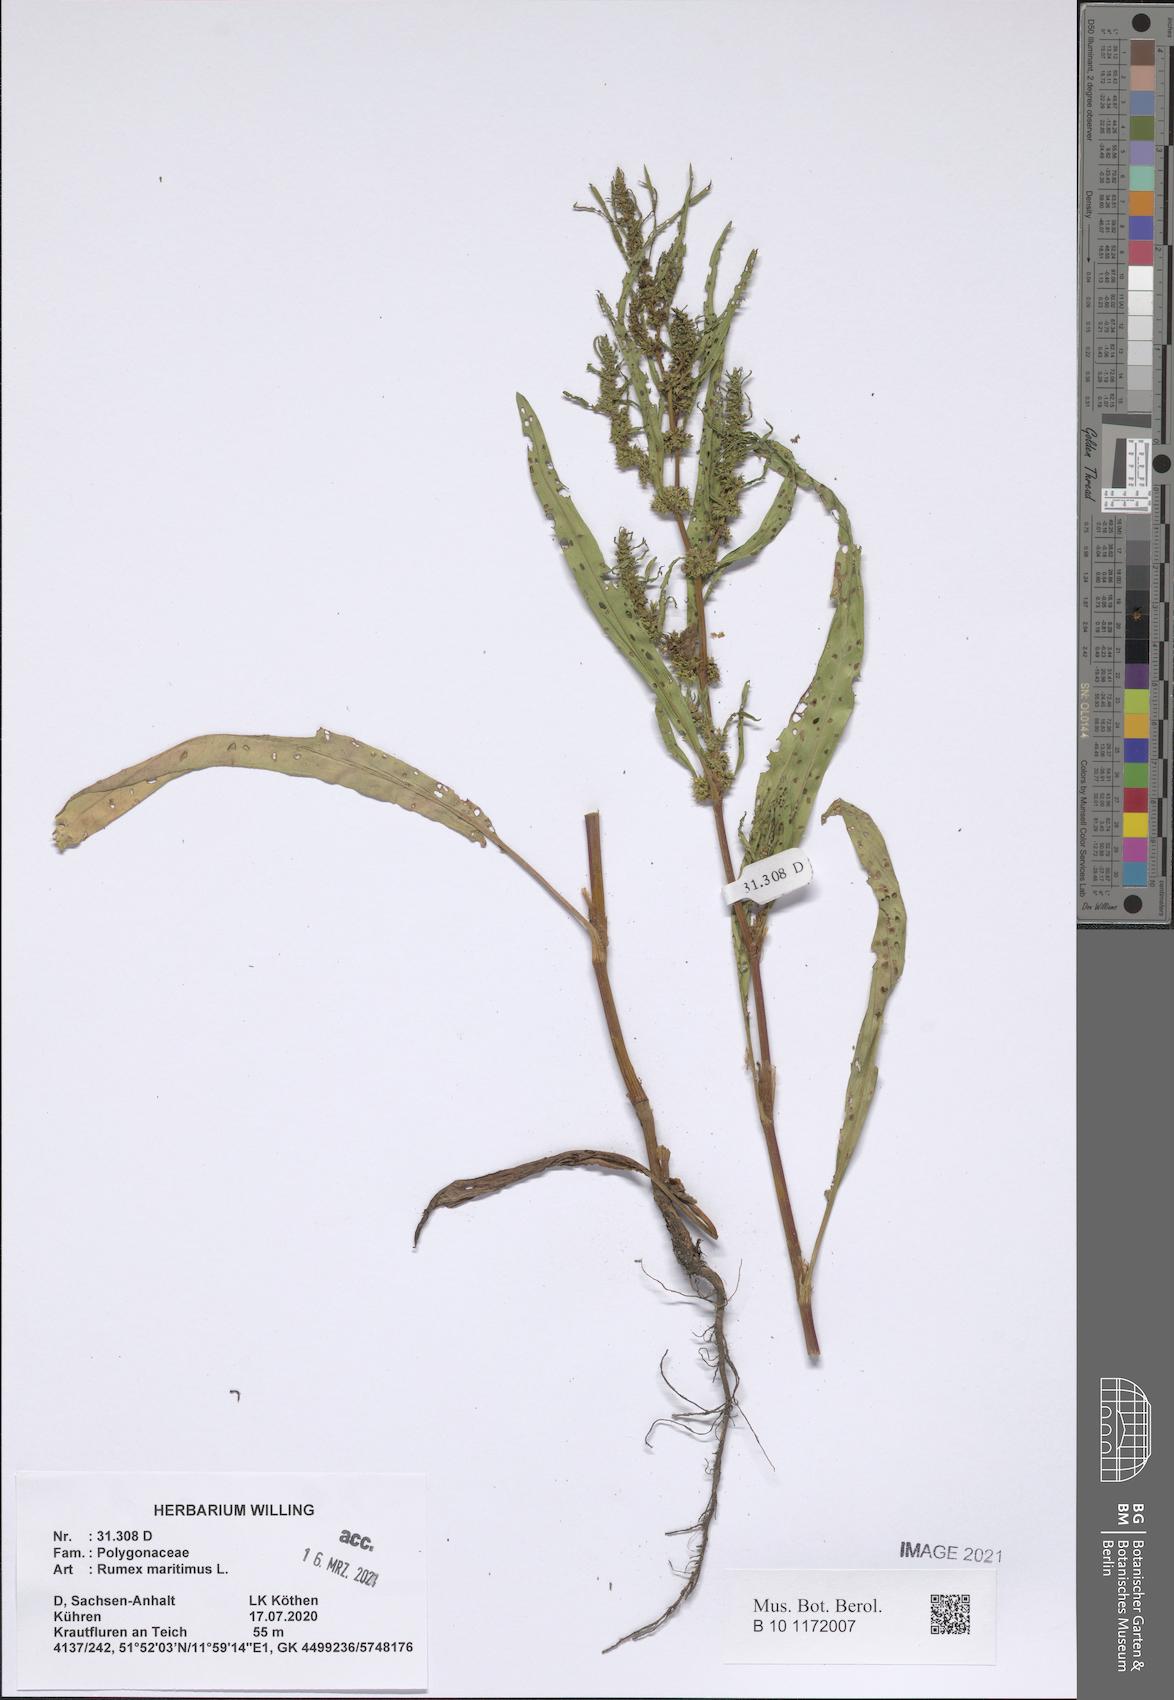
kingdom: Plantae
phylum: Tracheophyta
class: Magnoliopsida
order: Caryophyllales
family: Polygonaceae
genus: Rumex
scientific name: Rumex maritimus
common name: Golden dock
